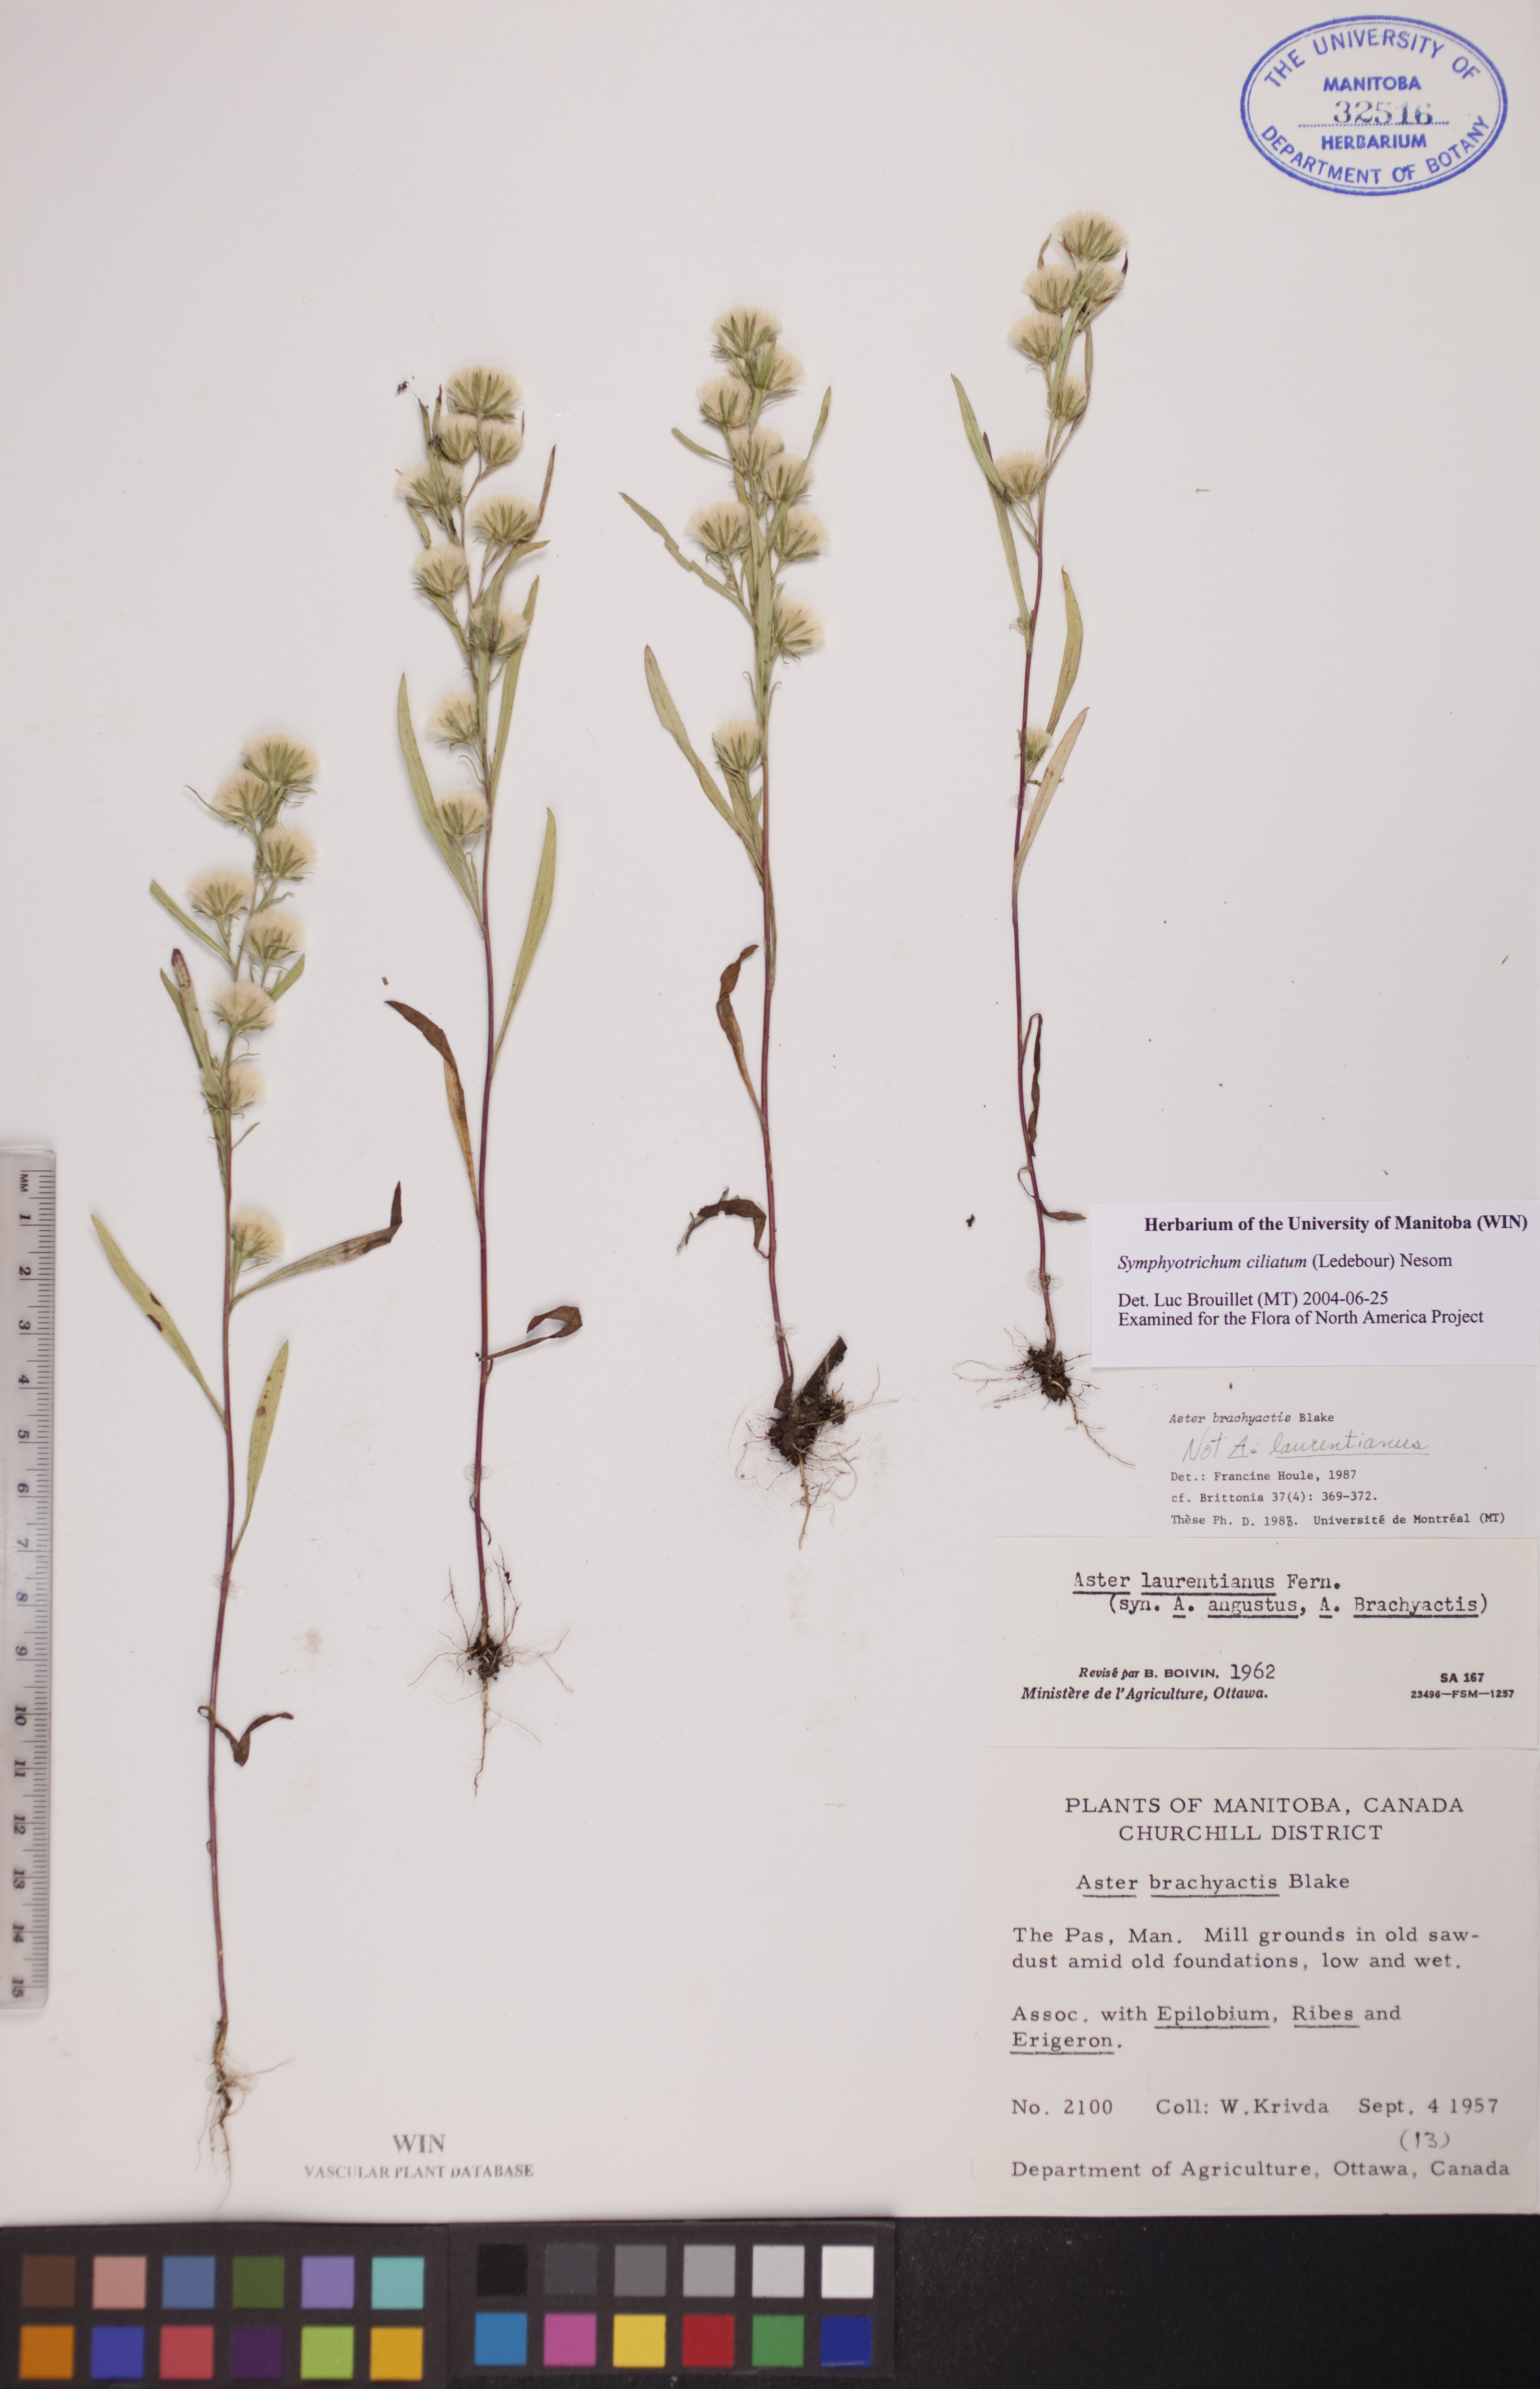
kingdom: Plantae
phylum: Tracheophyta
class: Magnoliopsida
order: Asterales
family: Asteraceae
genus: Symphyotrichum
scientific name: Symphyotrichum ciliatum
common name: Rayless annual aster
